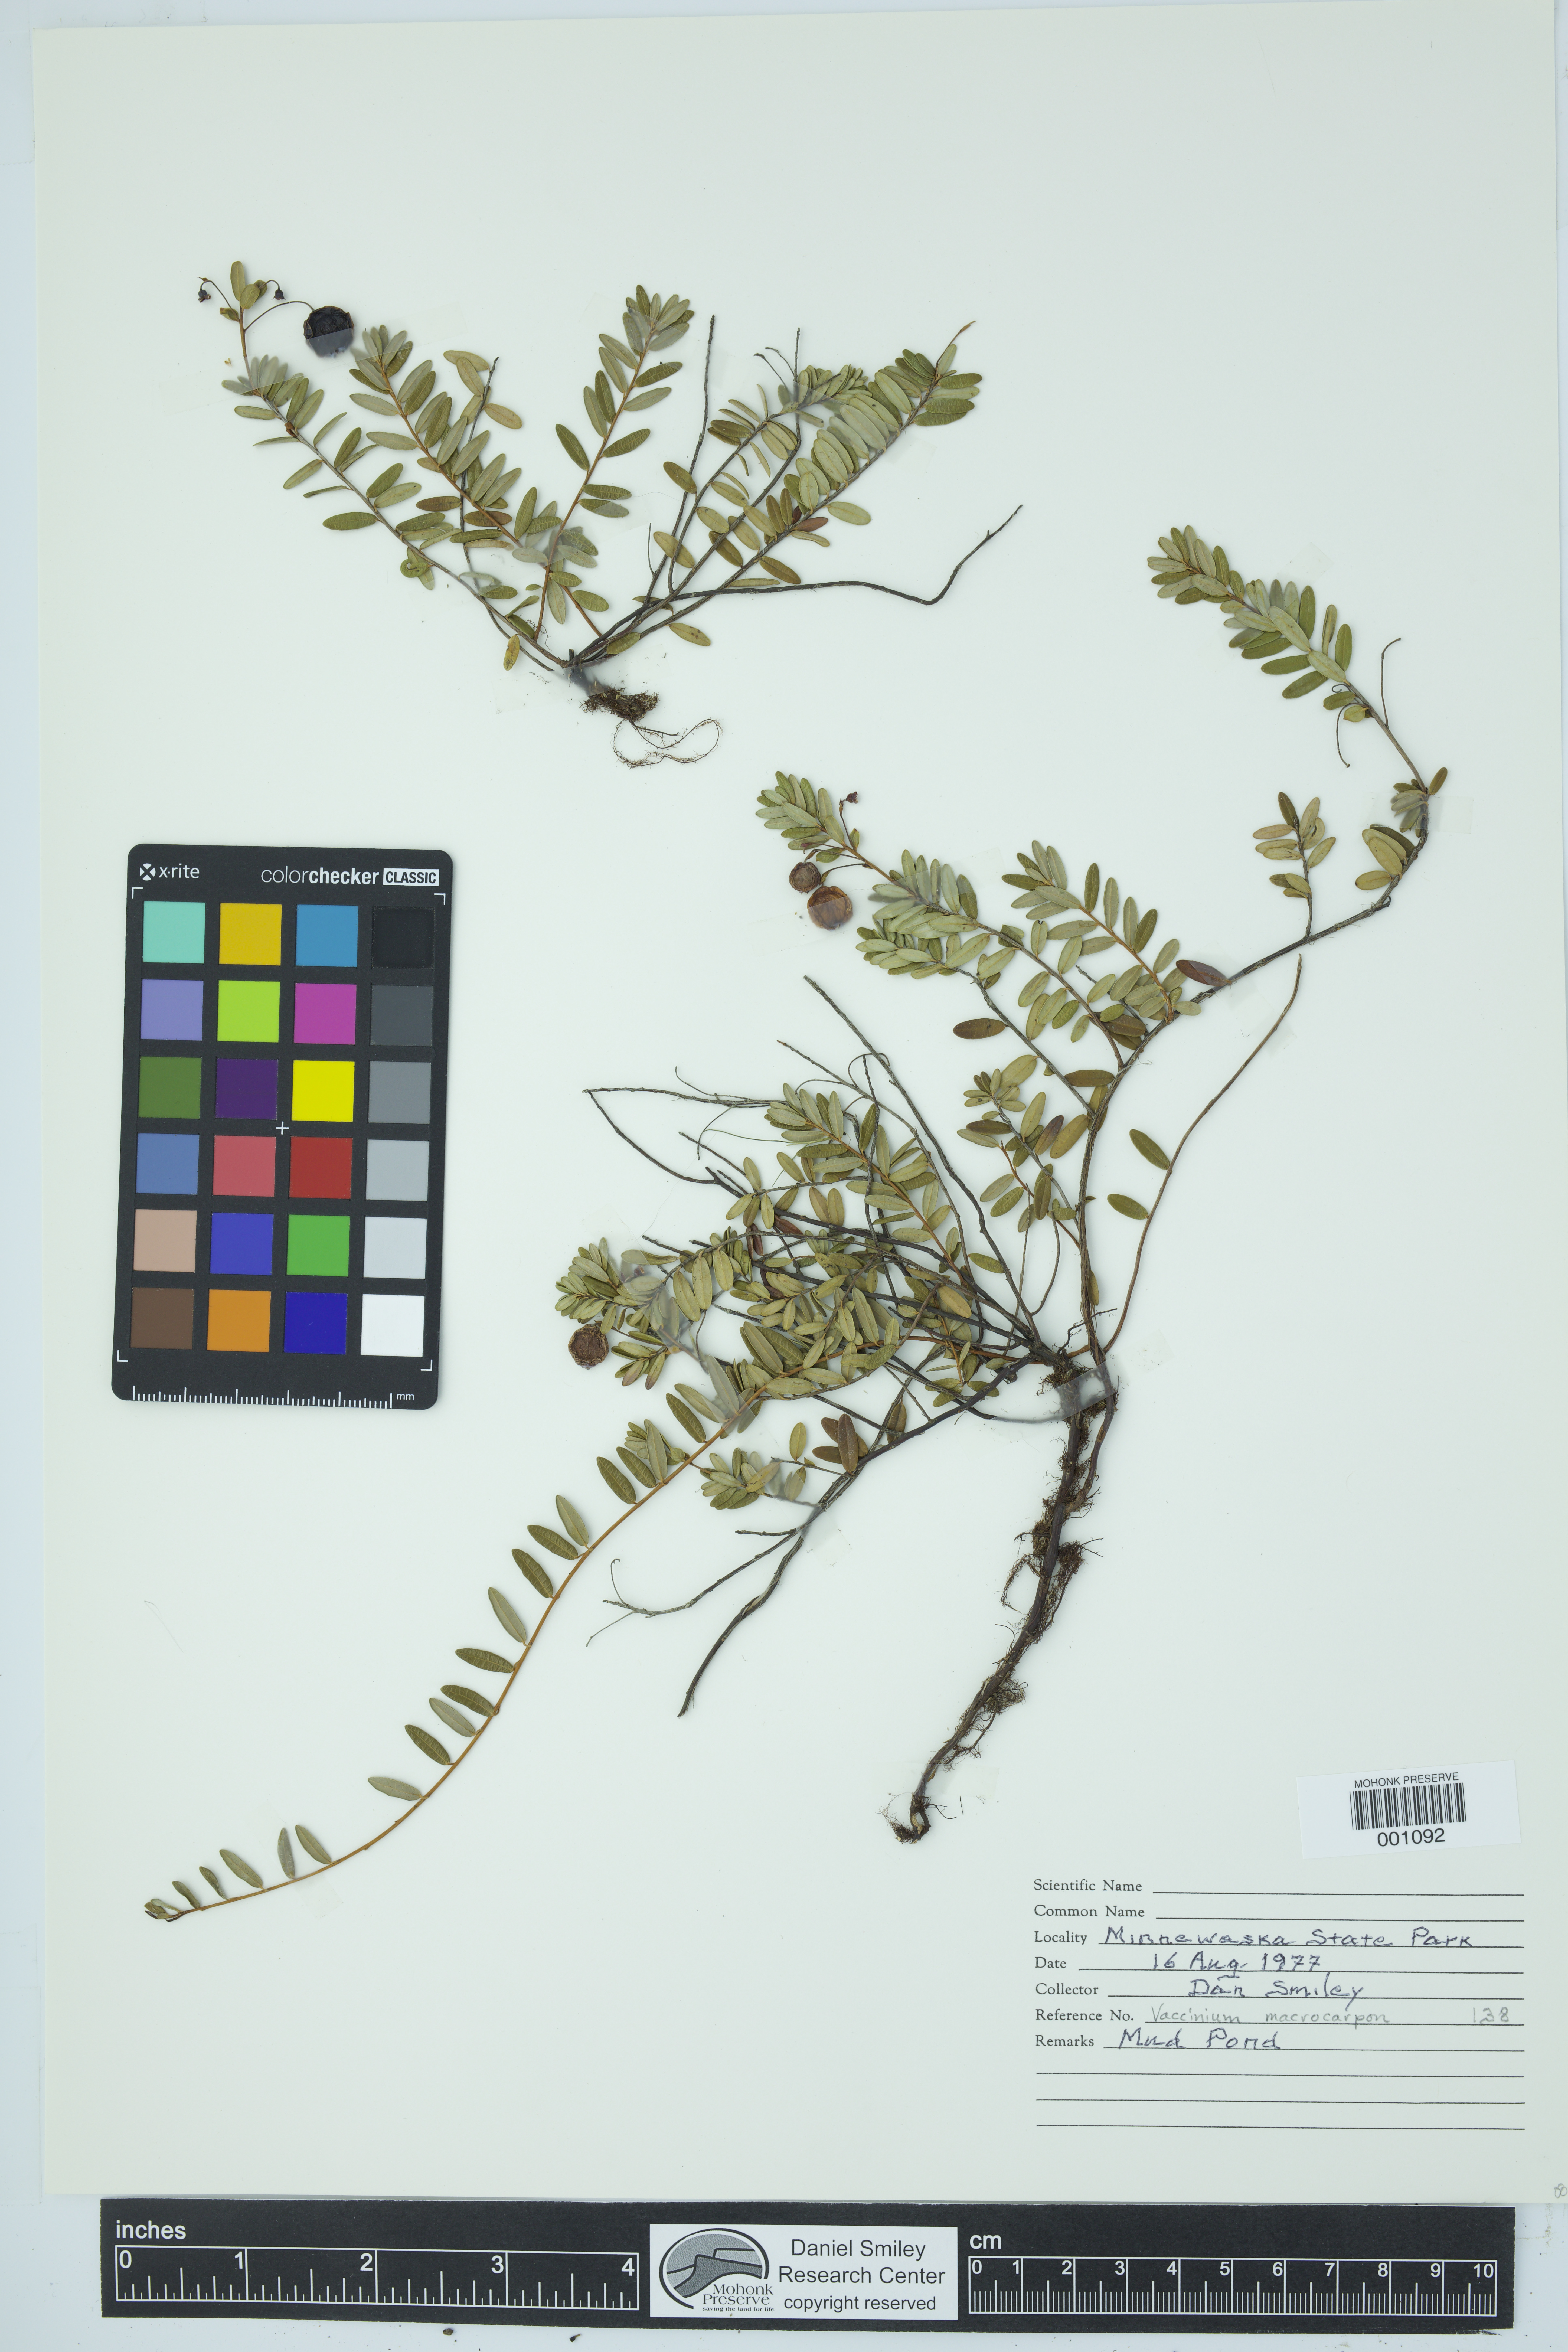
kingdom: Plantae
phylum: Tracheophyta
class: Magnoliopsida
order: Ericales
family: Ericaceae
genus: Vaccinium
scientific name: Vaccinium macrocarpon
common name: American cranberry
